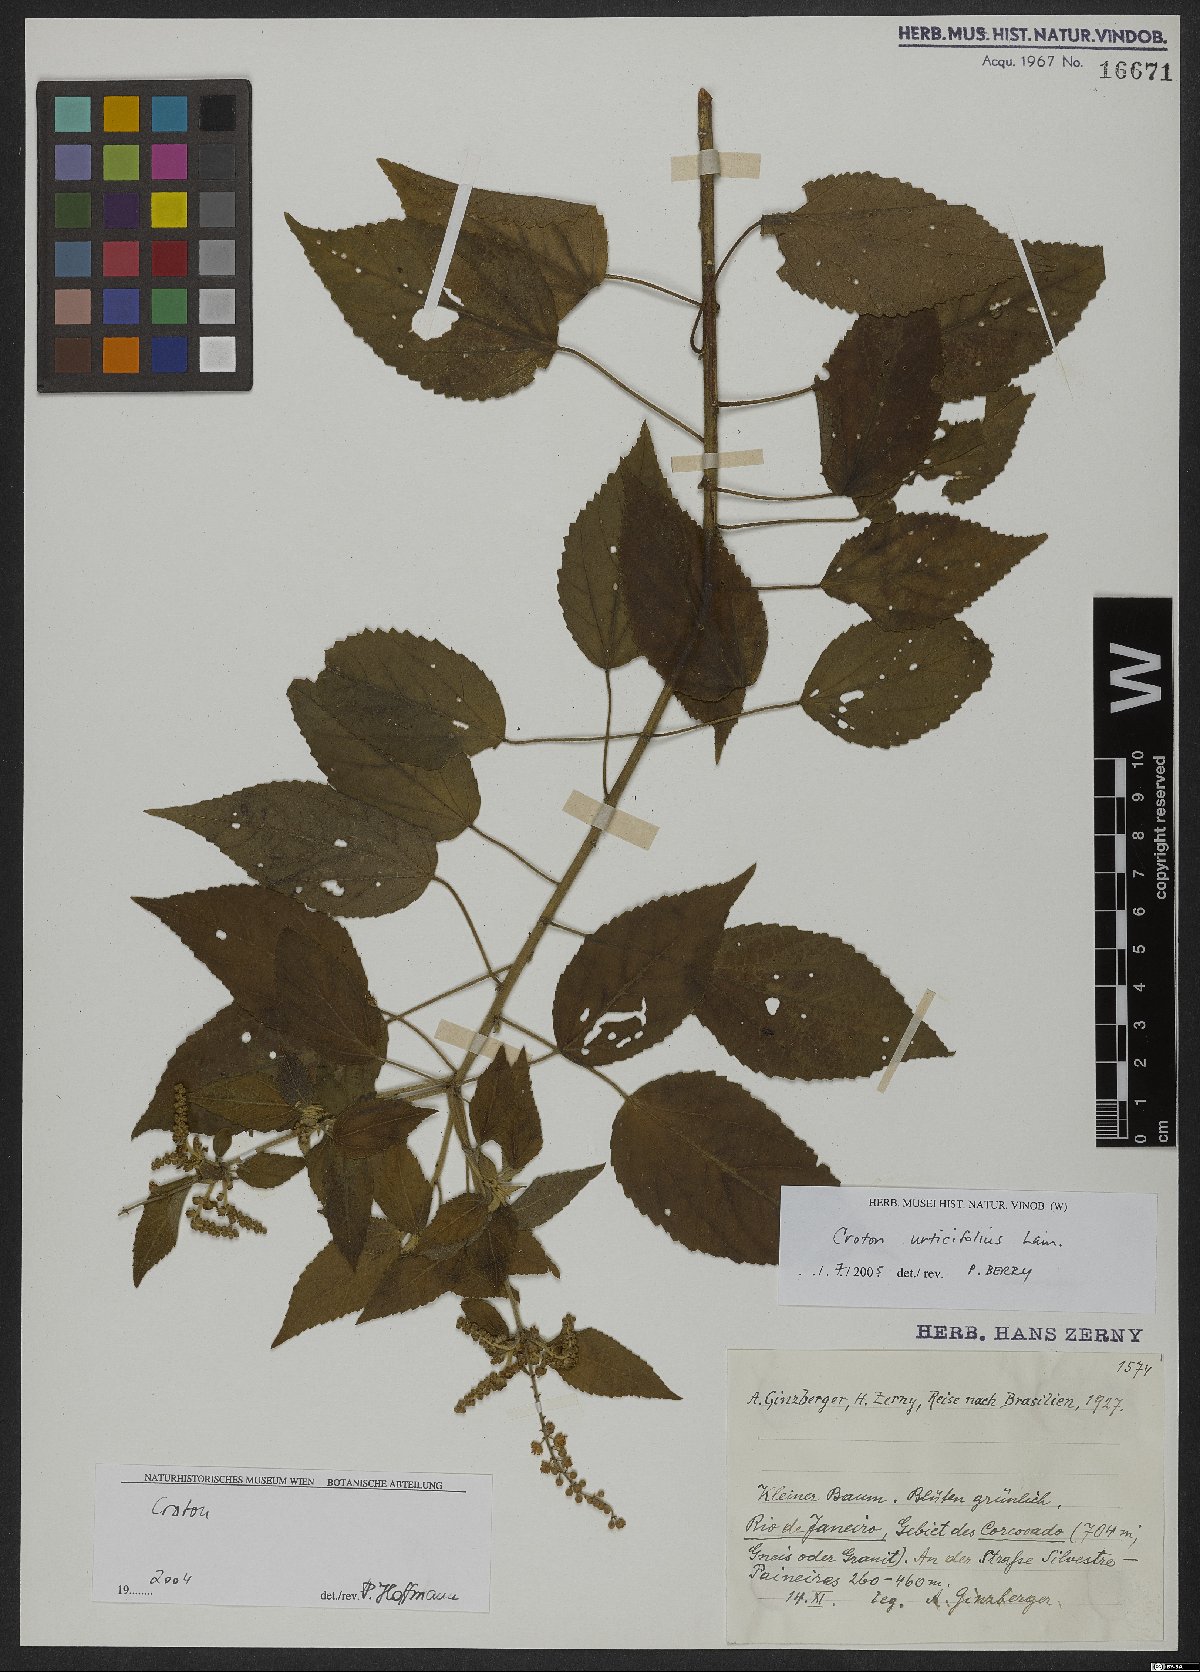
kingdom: Plantae
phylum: Tracheophyta
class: Magnoliopsida
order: Malpighiales
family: Euphorbiaceae
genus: Croton
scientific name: Croton urticifolius
